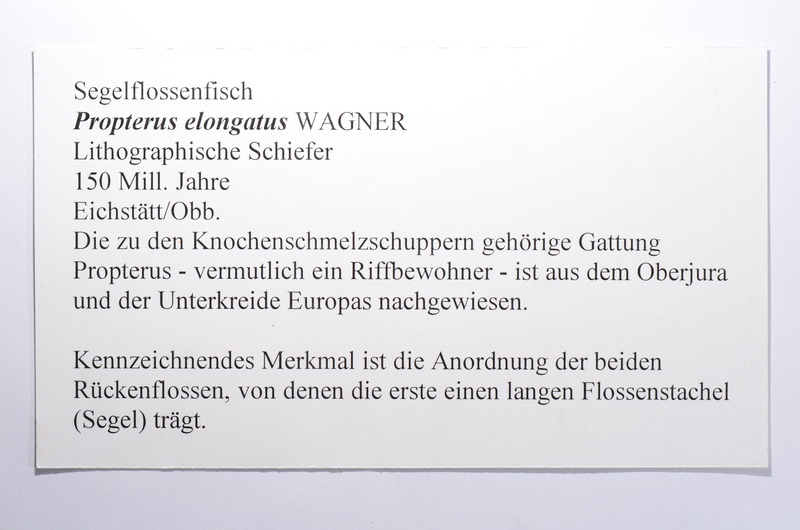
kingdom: Animalia
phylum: Chordata
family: Macrosemiidae
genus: Propterus
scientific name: Propterus elongatus
